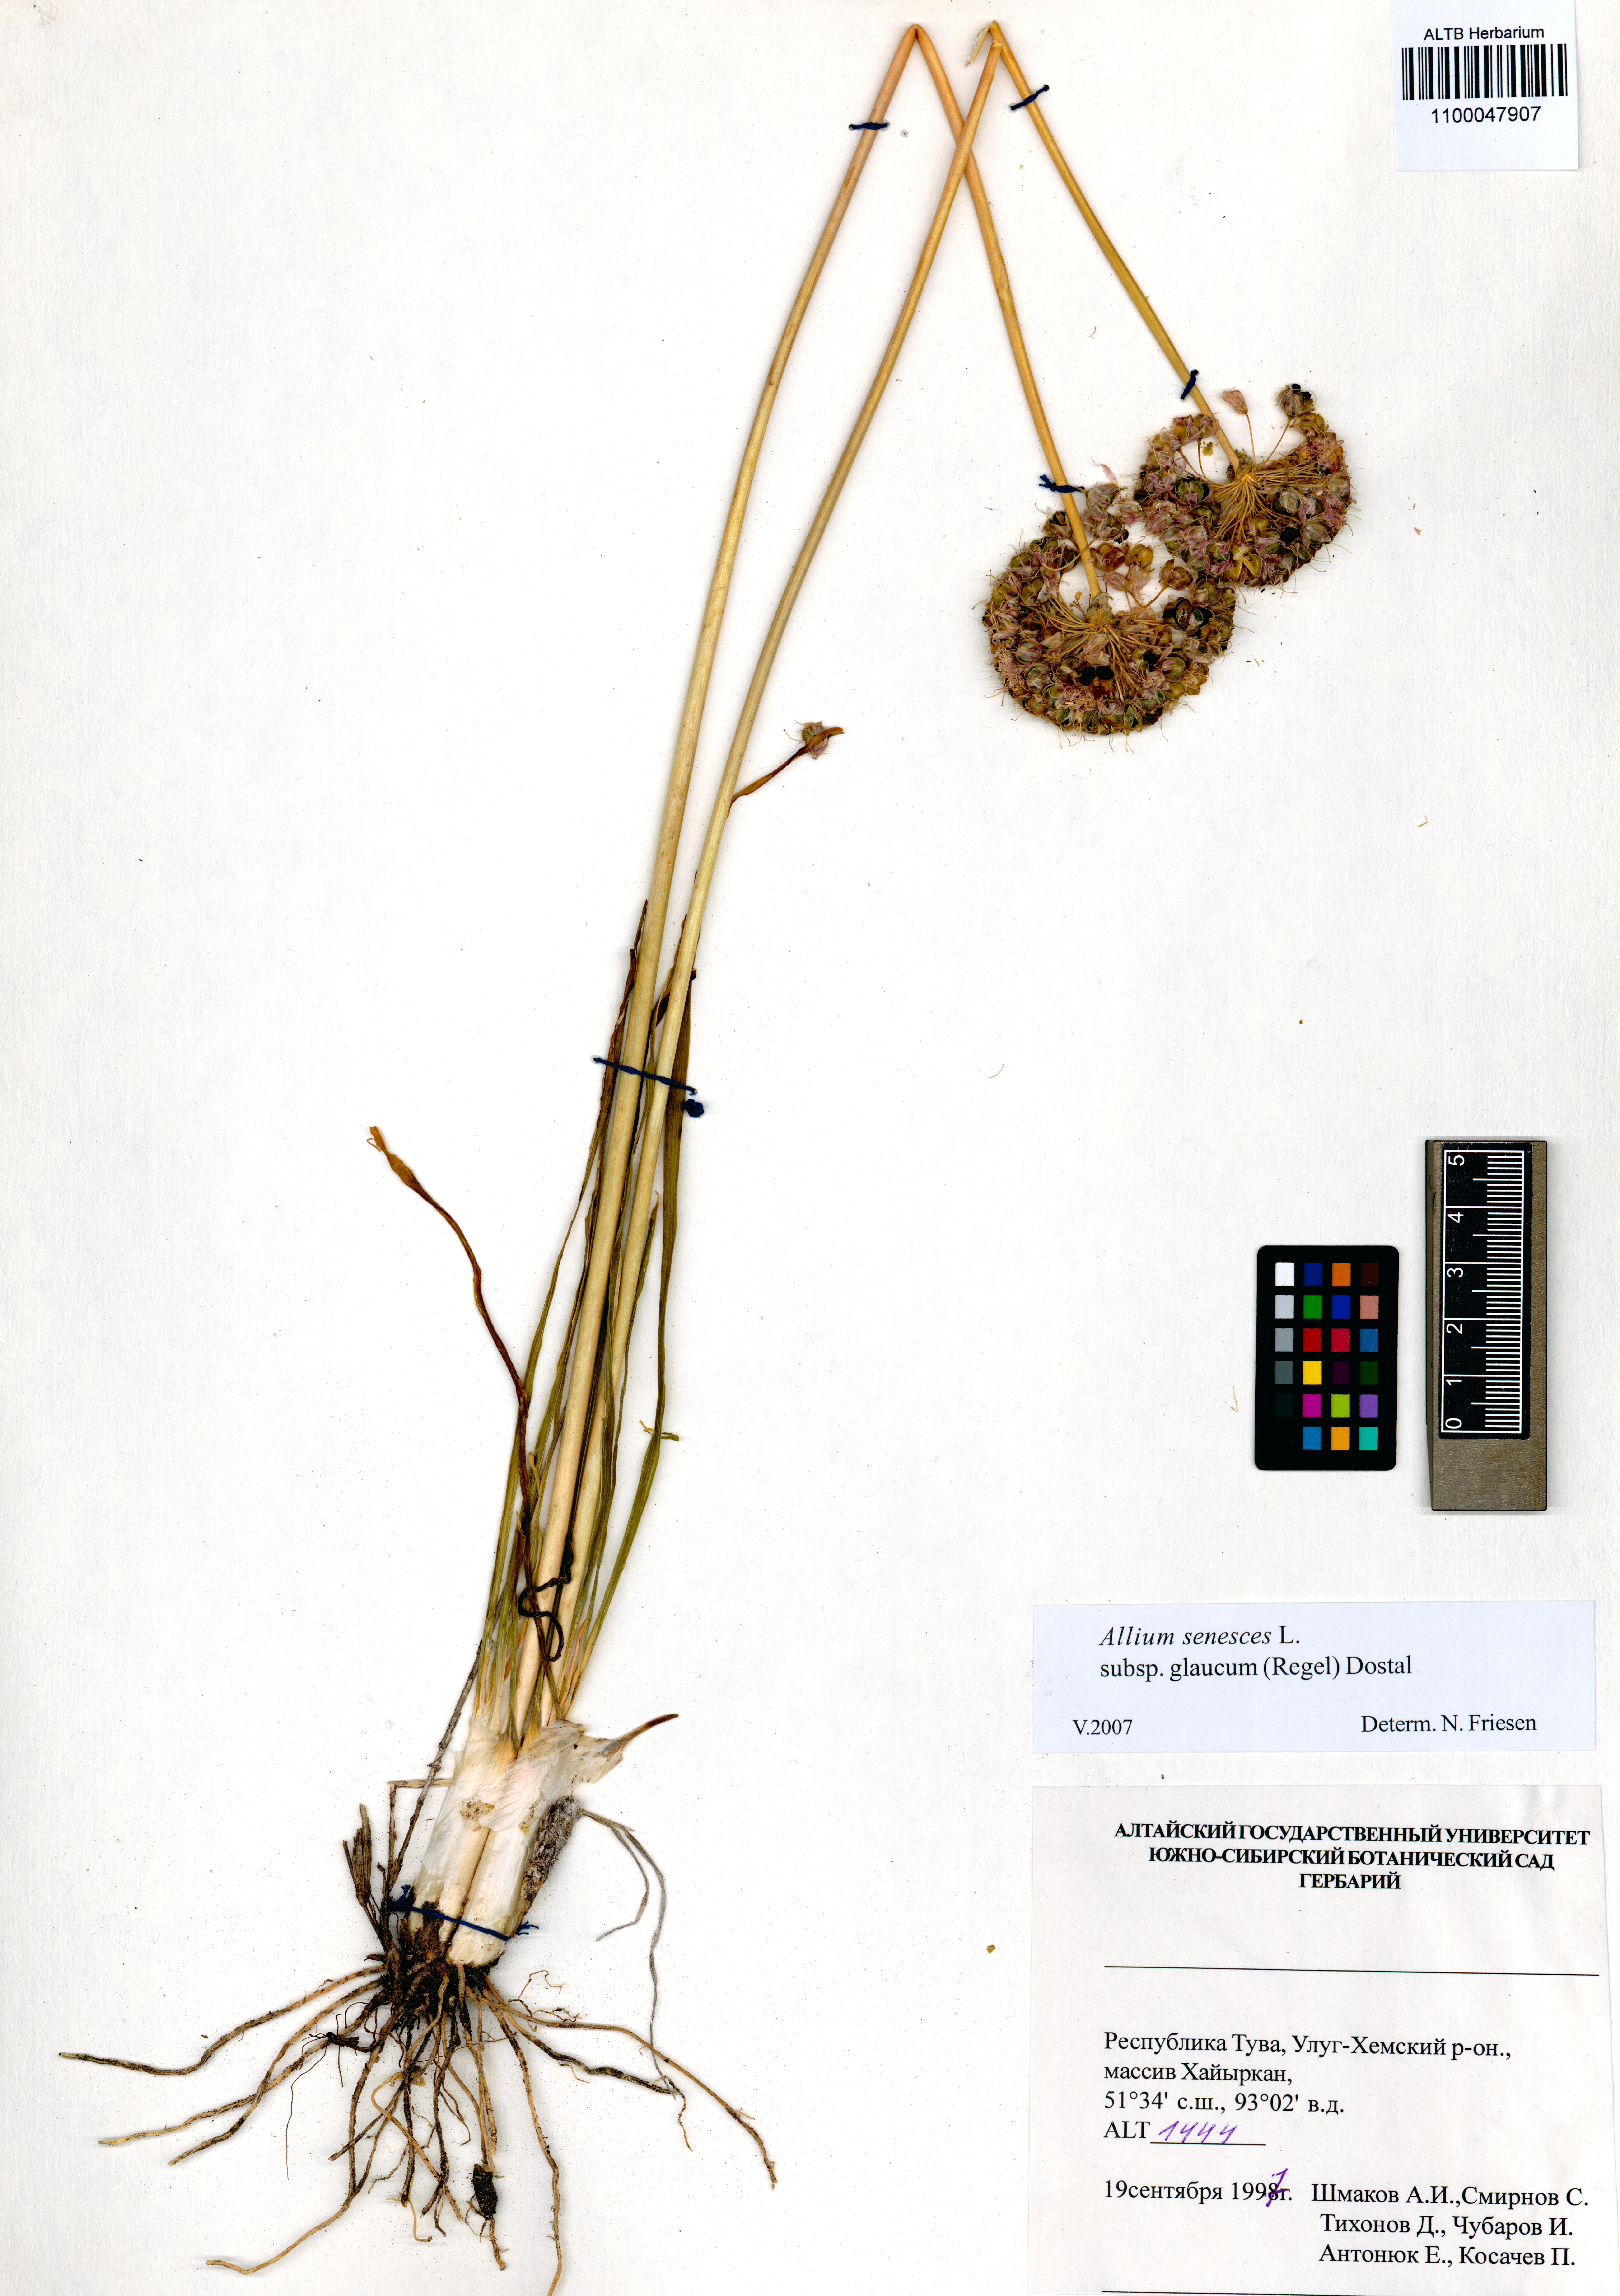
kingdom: Plantae
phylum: Tracheophyta
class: Liliopsida
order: Asparagales
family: Amaryllidaceae
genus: Allium
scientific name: Allium senescens
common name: German garlic
